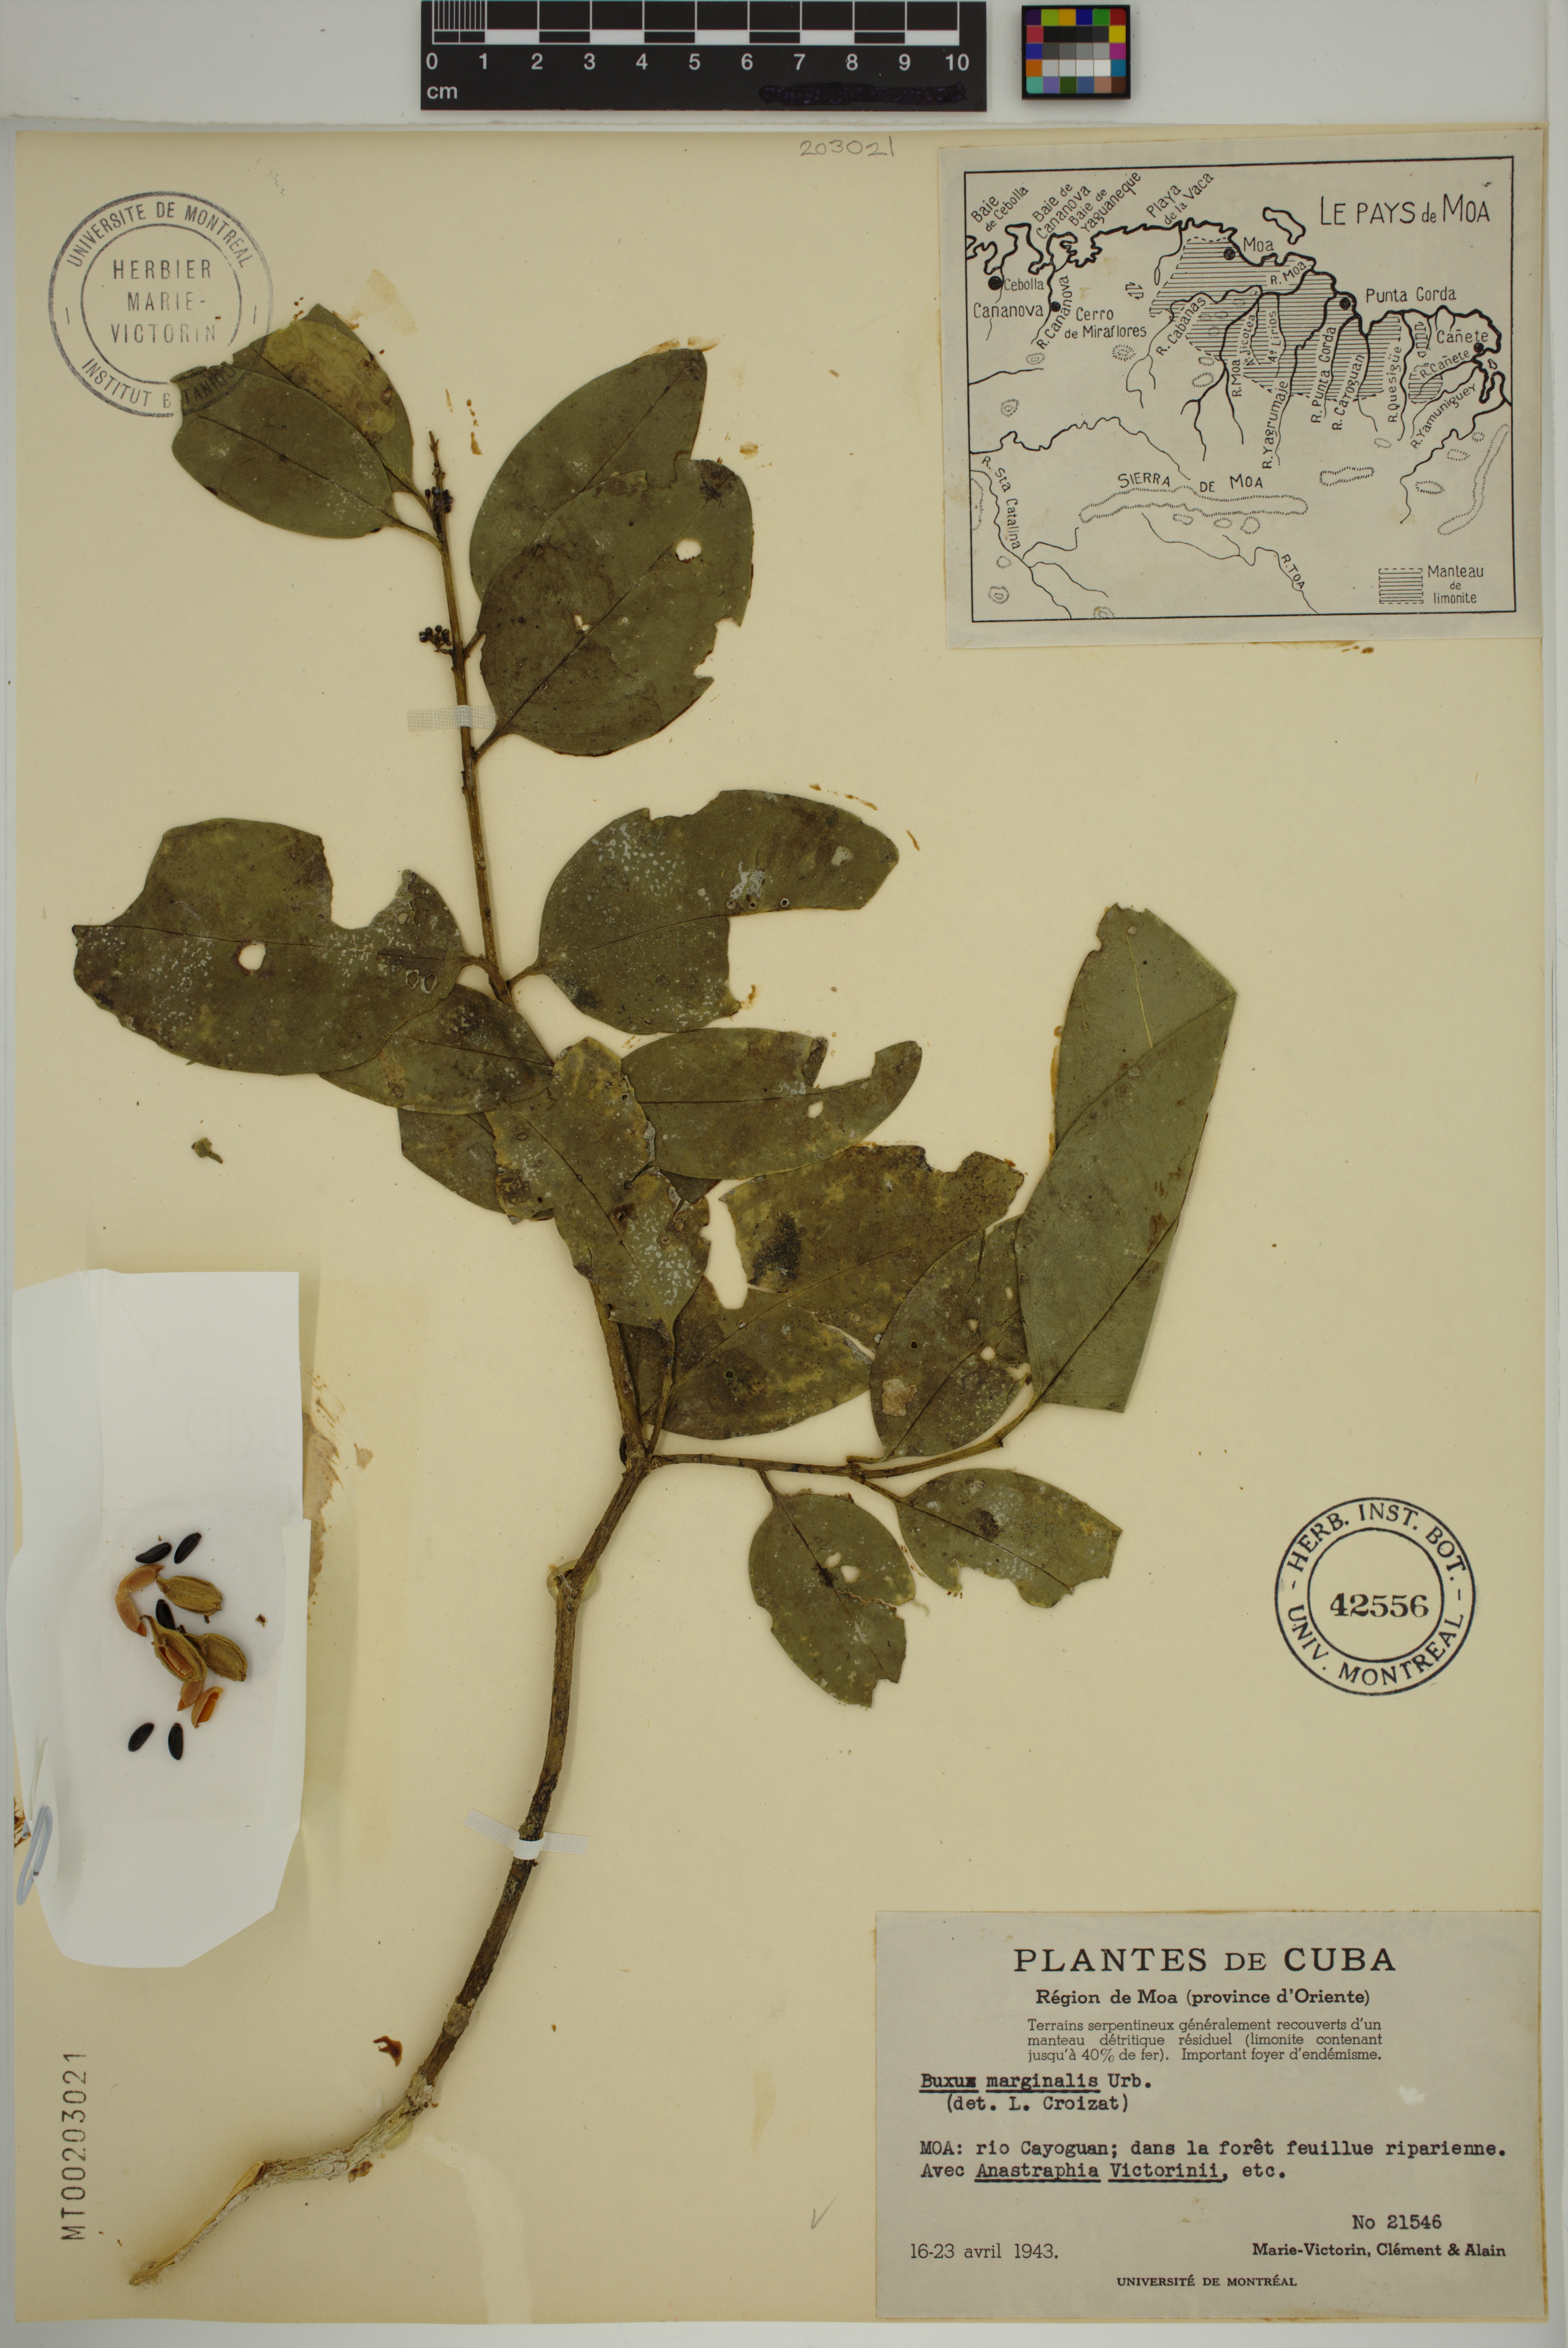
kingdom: Plantae
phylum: Tracheophyta
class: Magnoliopsida
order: Buxales
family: Buxaceae
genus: Buxus
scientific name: Buxus marginalis
